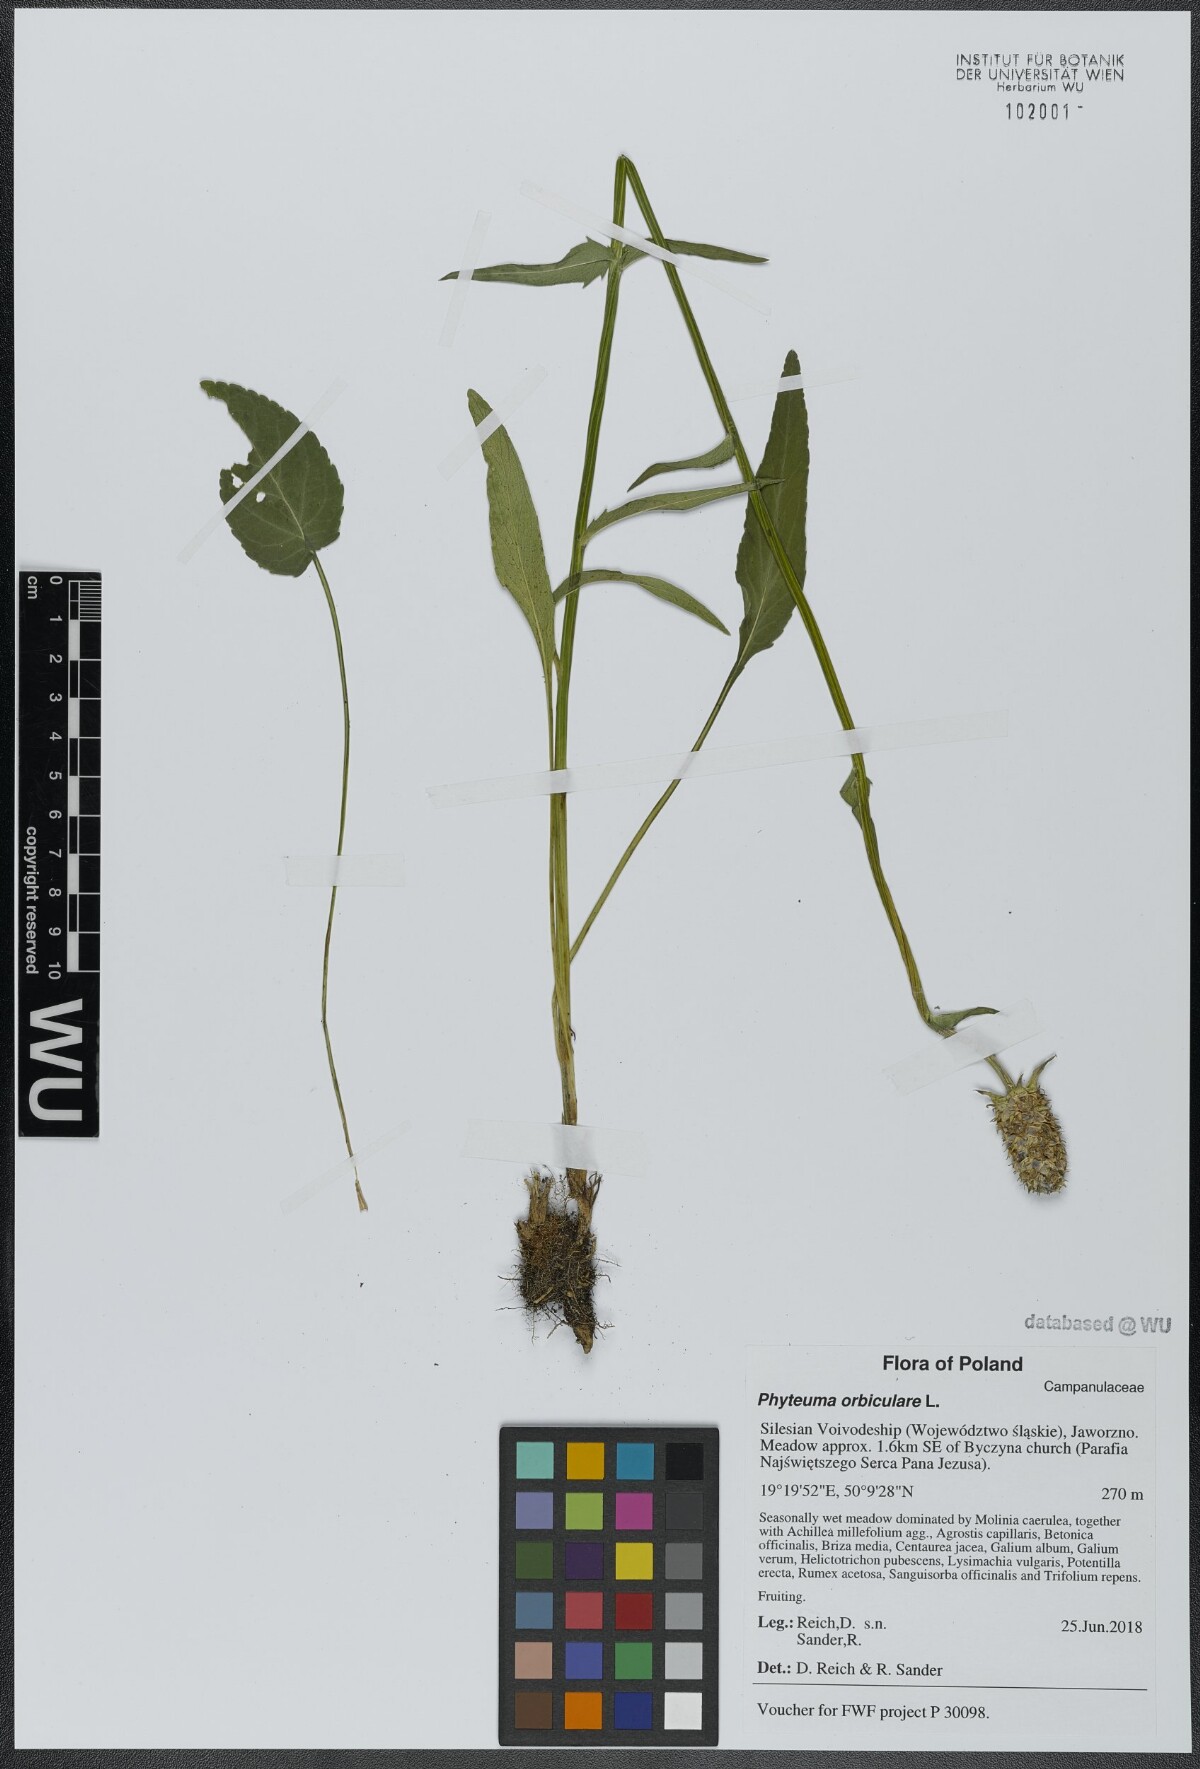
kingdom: Plantae
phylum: Tracheophyta
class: Magnoliopsida
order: Asterales
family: Campanulaceae
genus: Phyteuma
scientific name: Phyteuma orbiculare
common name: Round-headed rampion
